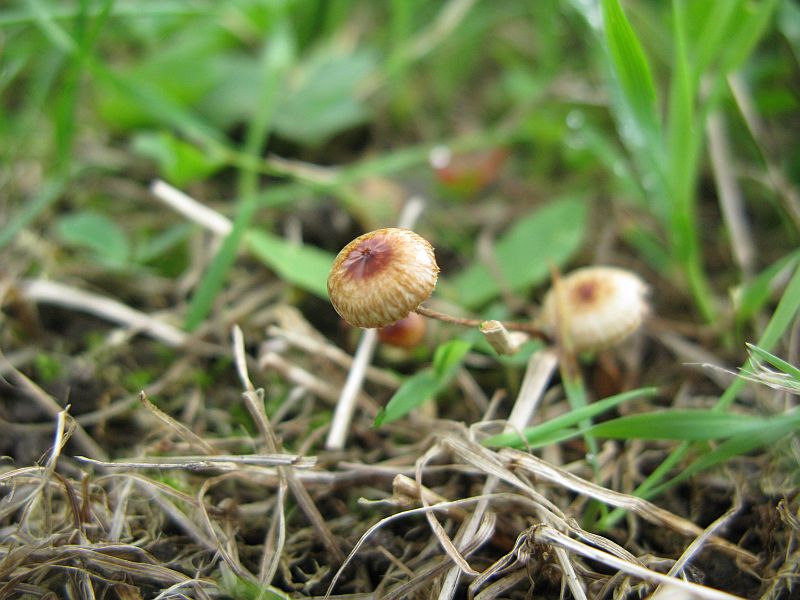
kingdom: Fungi
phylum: Basidiomycota
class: Agaricomycetes
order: Agaricales
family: Marasmiaceae
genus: Crinipellis
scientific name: Crinipellis scabella
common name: børstefod
